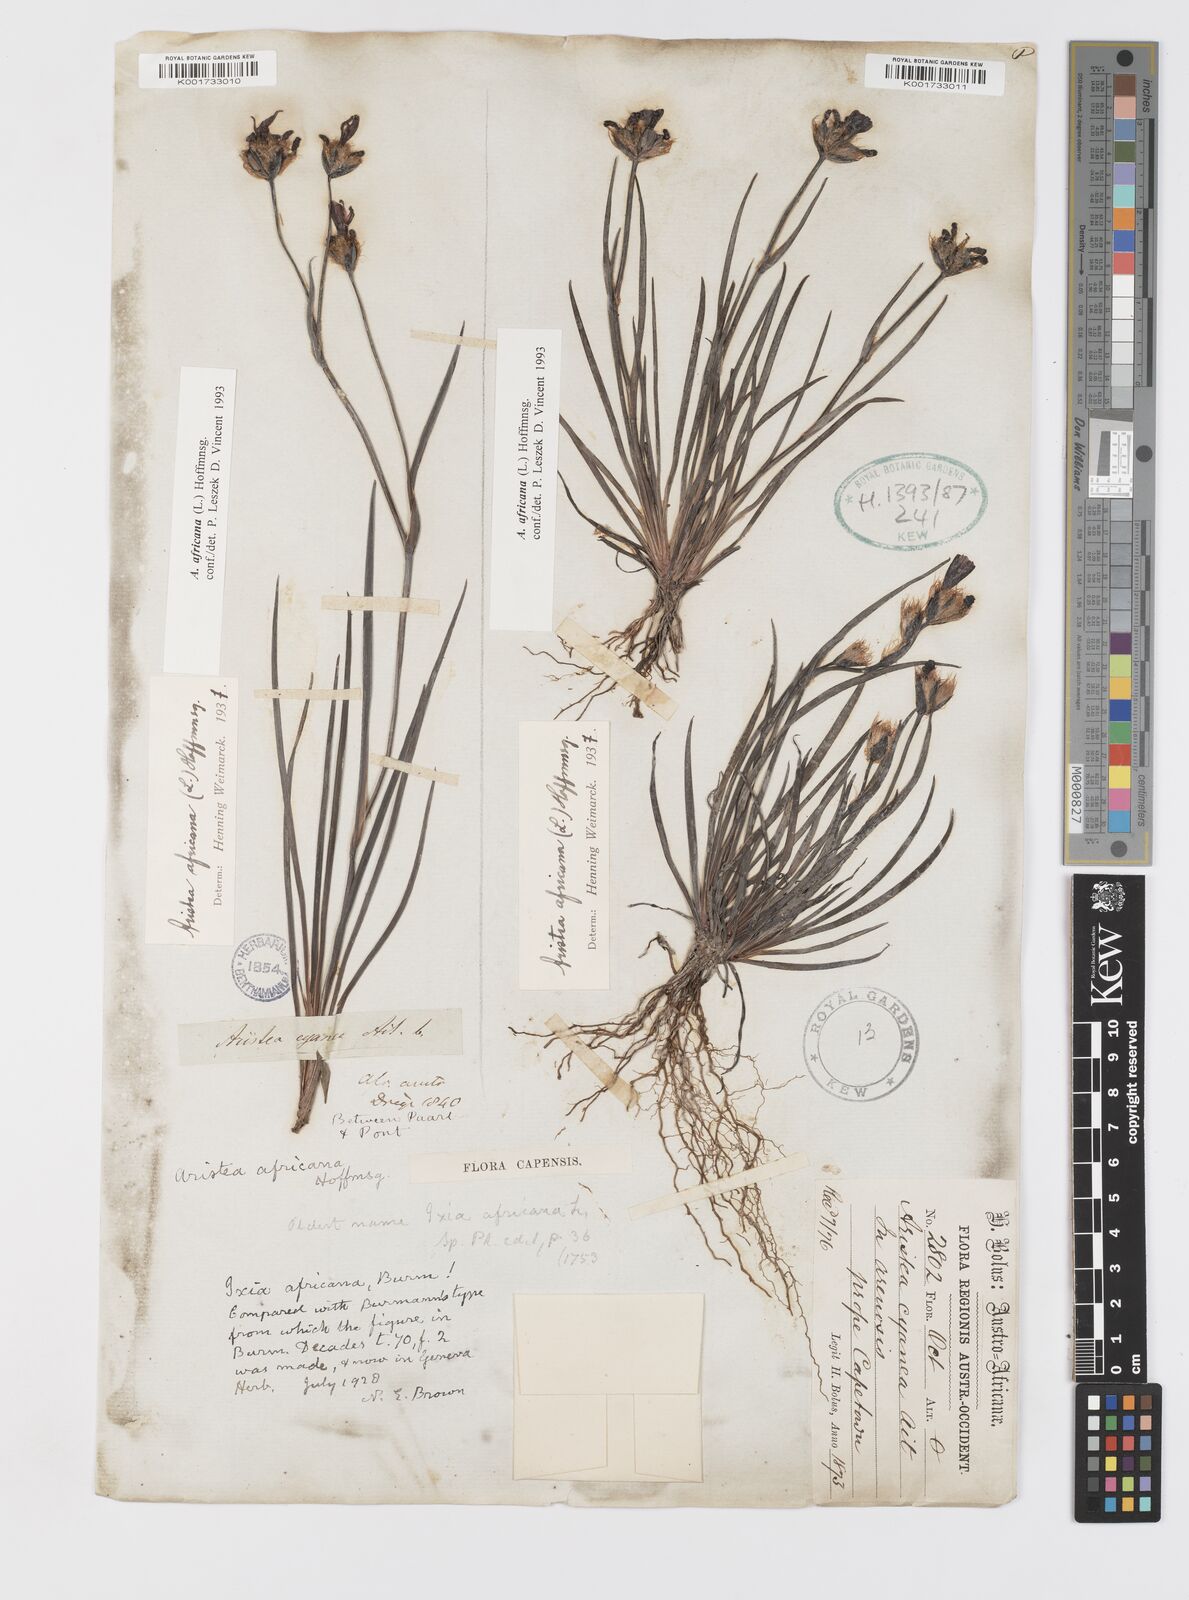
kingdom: Plantae
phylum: Tracheophyta
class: Liliopsida
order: Asparagales
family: Iridaceae
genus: Aristea
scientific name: Aristea africana
